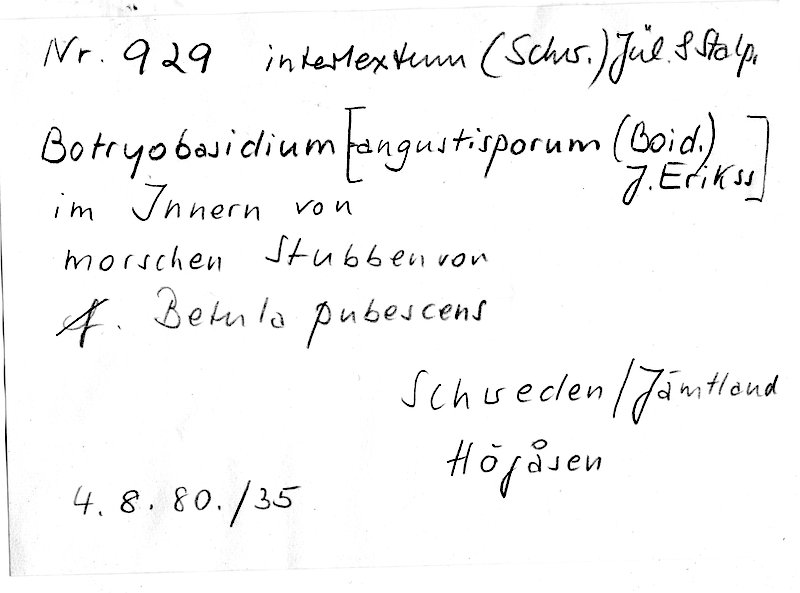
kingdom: Fungi
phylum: Basidiomycota
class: Agaricomycetes
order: Cantharellales
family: Botryobasidiaceae
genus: Botryobasidium
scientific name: Botryobasidium intertextum
